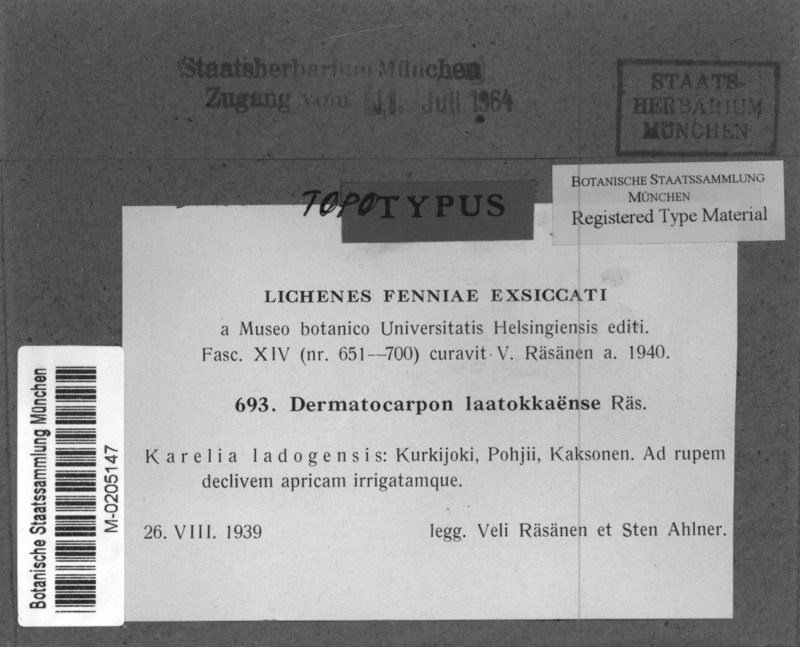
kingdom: Fungi
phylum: Ascomycota
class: Eurotiomycetes
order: Verrucariales
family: Verrucariaceae
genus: Dermatocarpon
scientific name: Dermatocarpon deminuens
